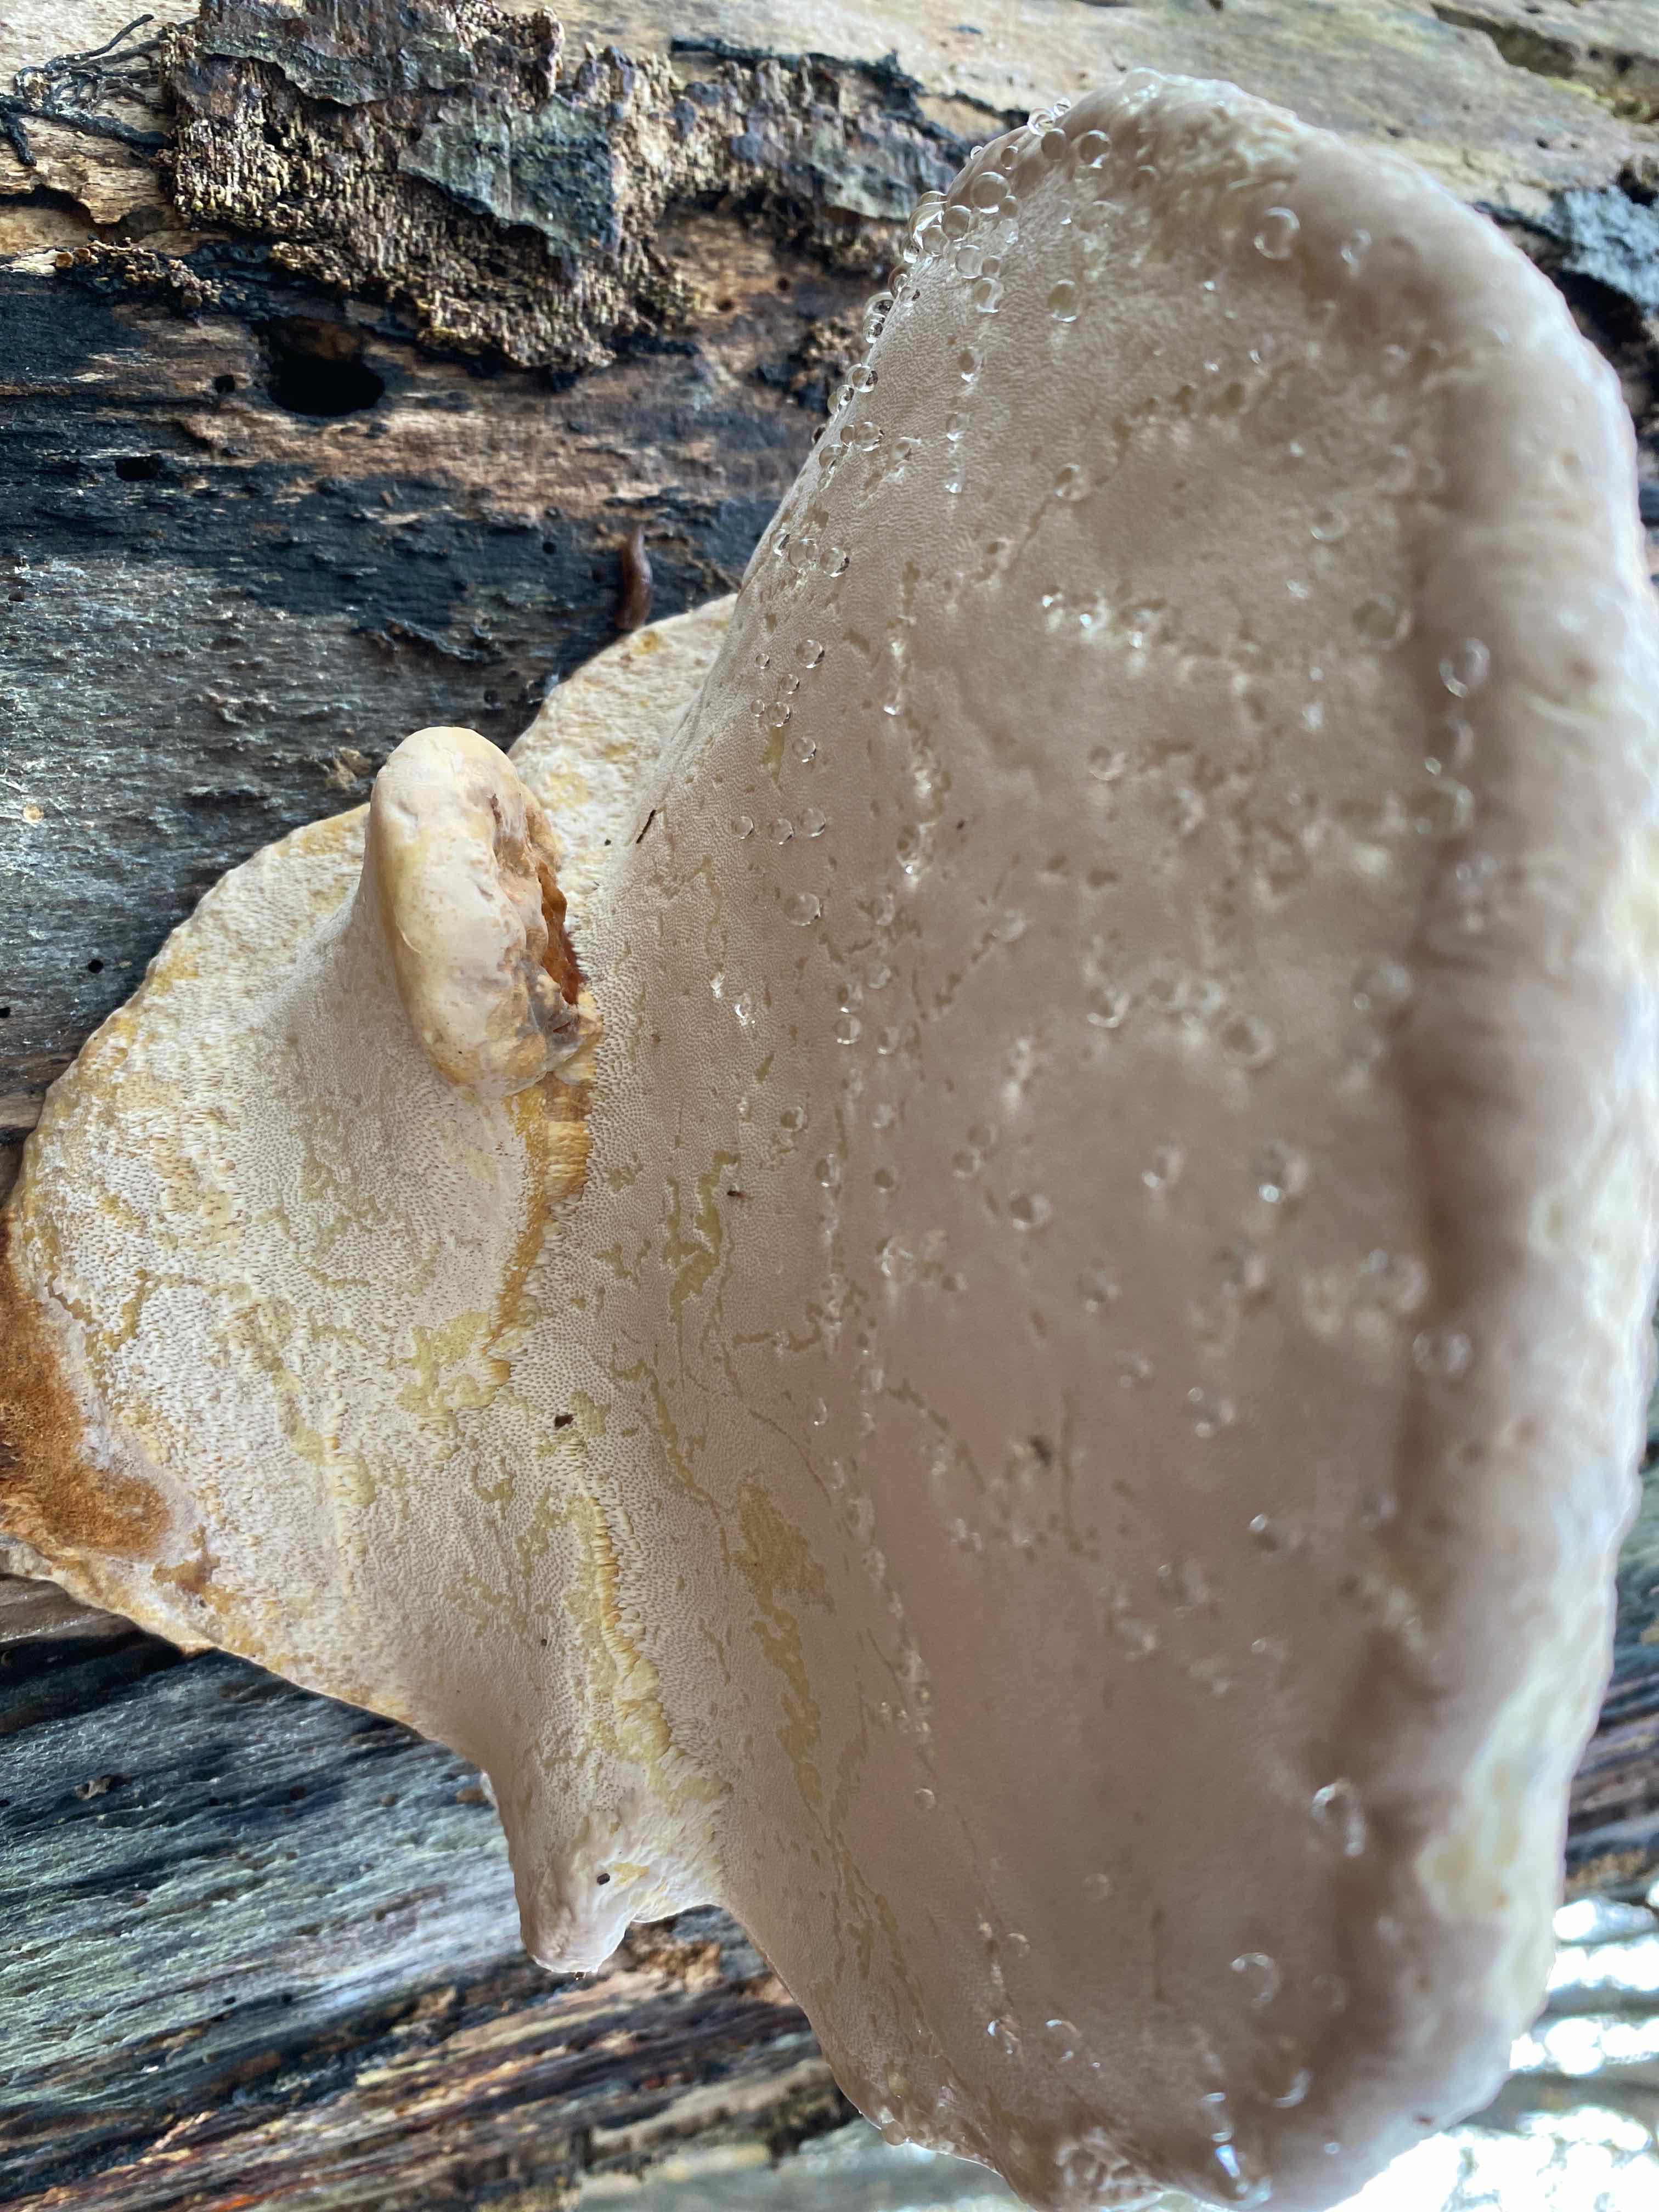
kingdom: Fungi
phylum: Basidiomycota
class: Agaricomycetes
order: Polyporales
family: Fomitopsidaceae
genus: Fomitopsis
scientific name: Fomitopsis pinicola
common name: randbæltet hovporesvamp
